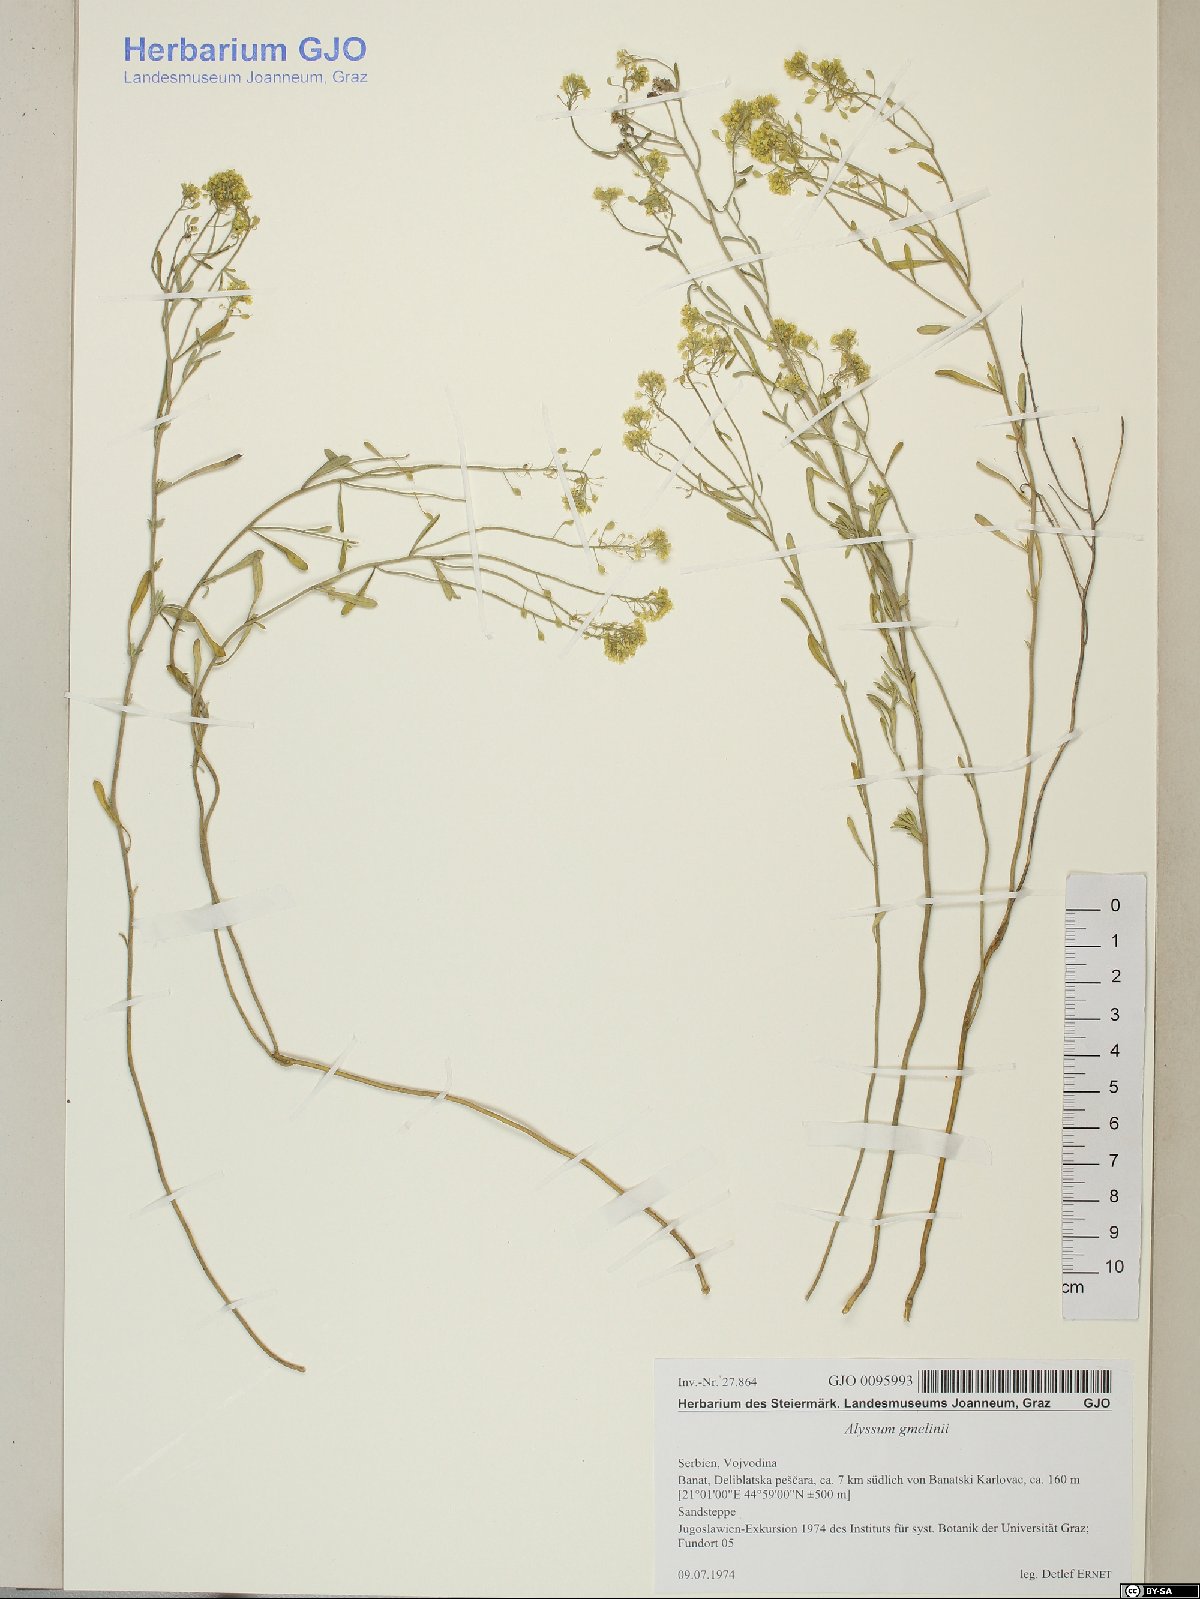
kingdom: Plantae
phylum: Tracheophyta
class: Magnoliopsida
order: Brassicales
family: Brassicaceae
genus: Alyssum
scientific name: Alyssum gmelinii
